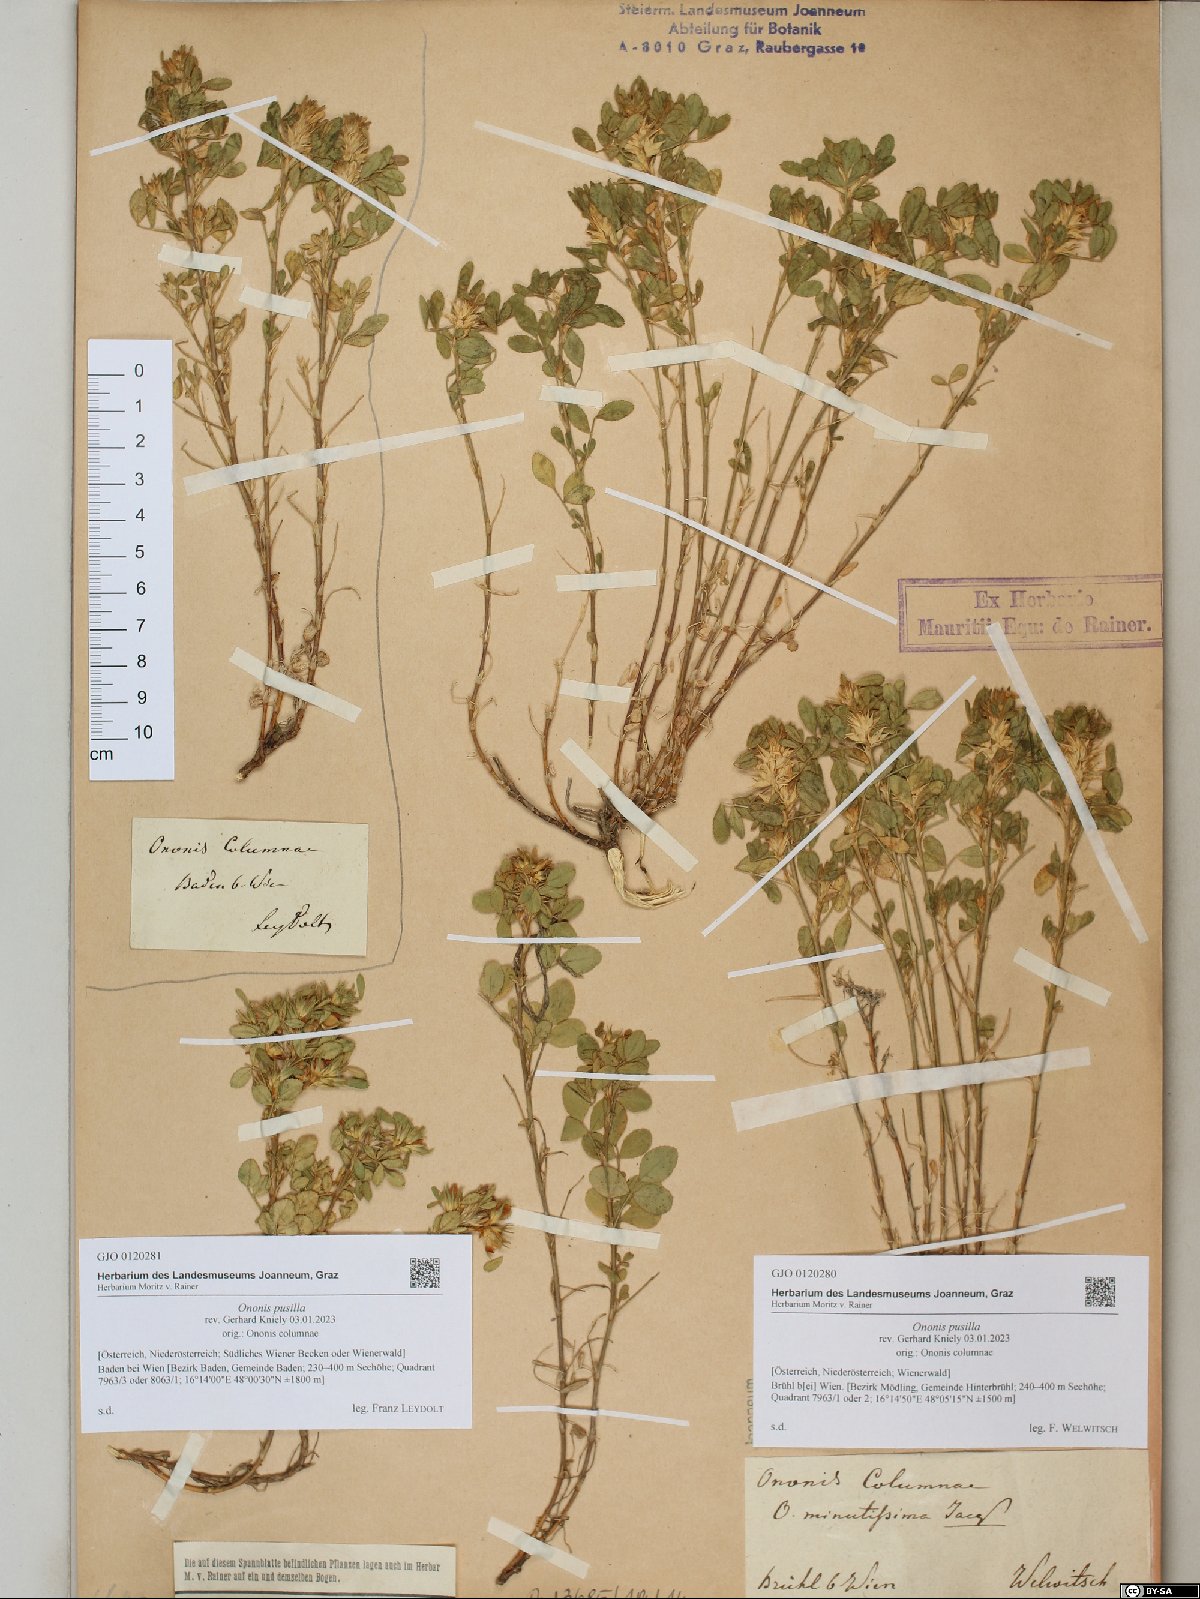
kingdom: Plantae
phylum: Tracheophyta
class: Magnoliopsida
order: Fabales
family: Fabaceae
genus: Ononis
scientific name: Ononis pusilla
